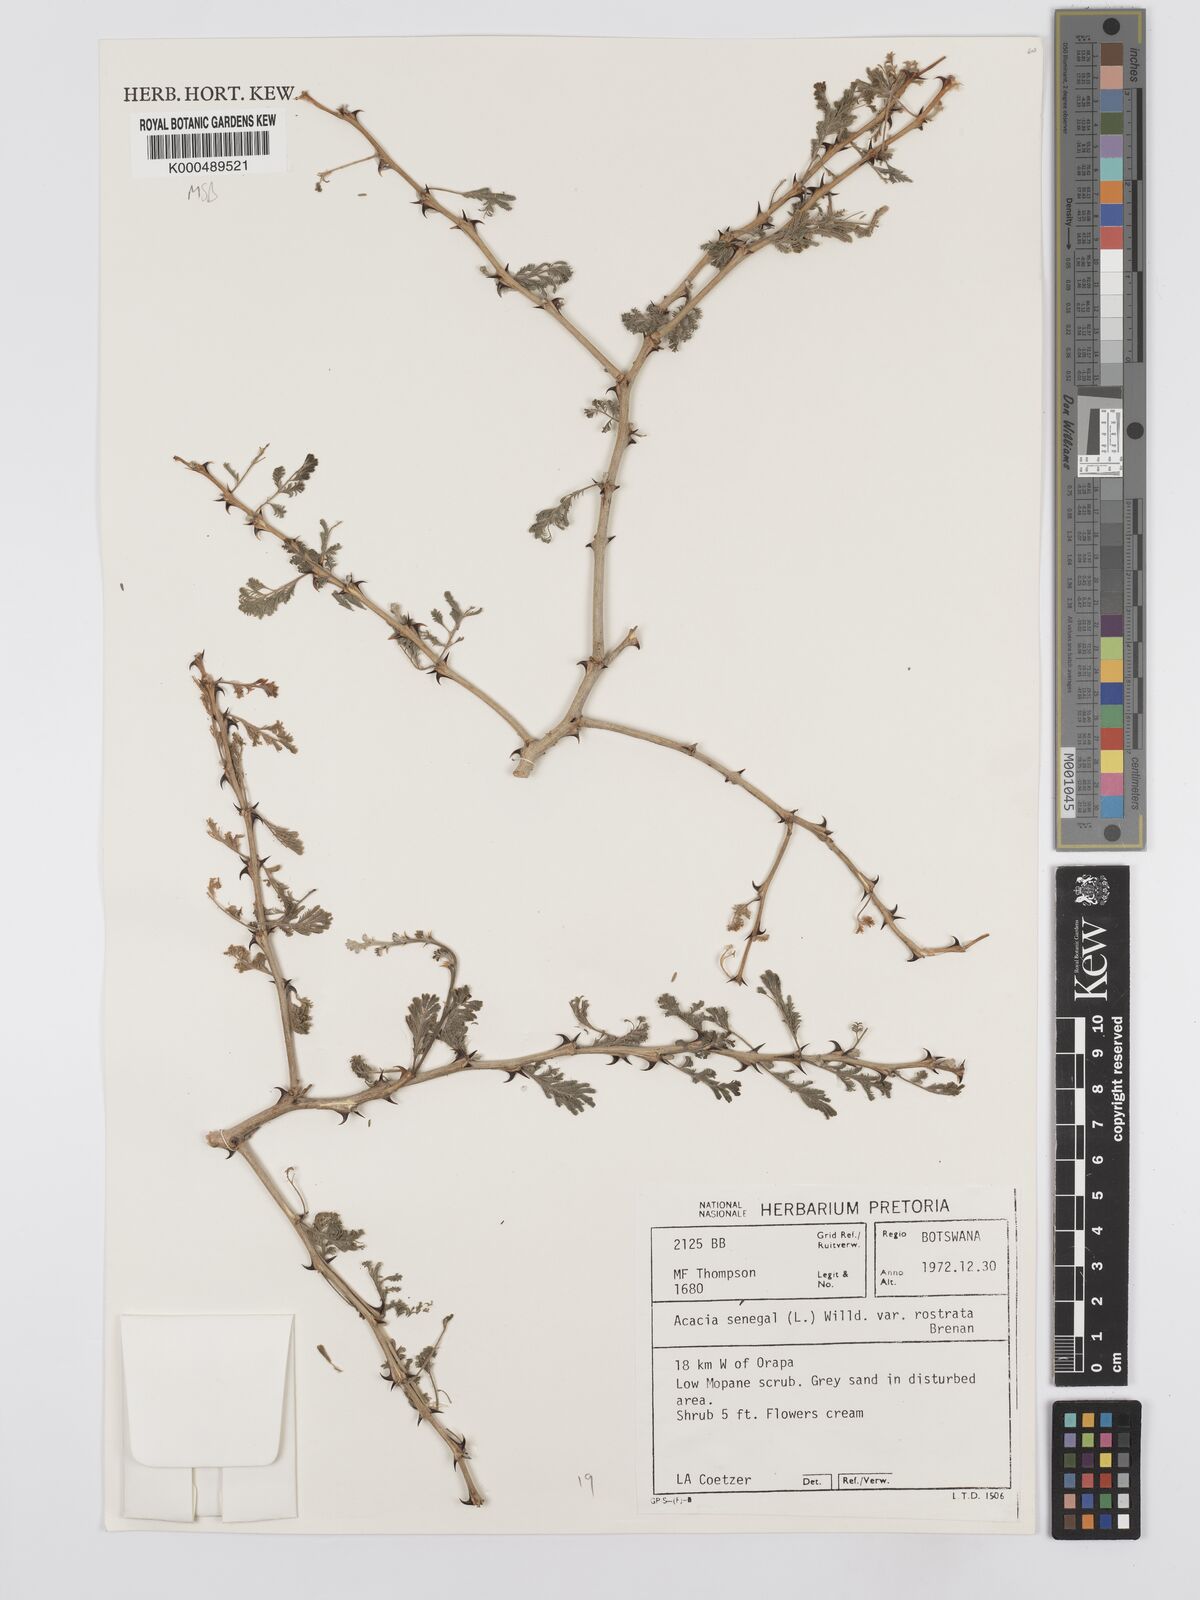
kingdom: Plantae
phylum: Tracheophyta
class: Magnoliopsida
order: Fabales
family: Fabaceae
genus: Senegalia
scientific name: Senegalia senegal
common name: Senegal-gum
